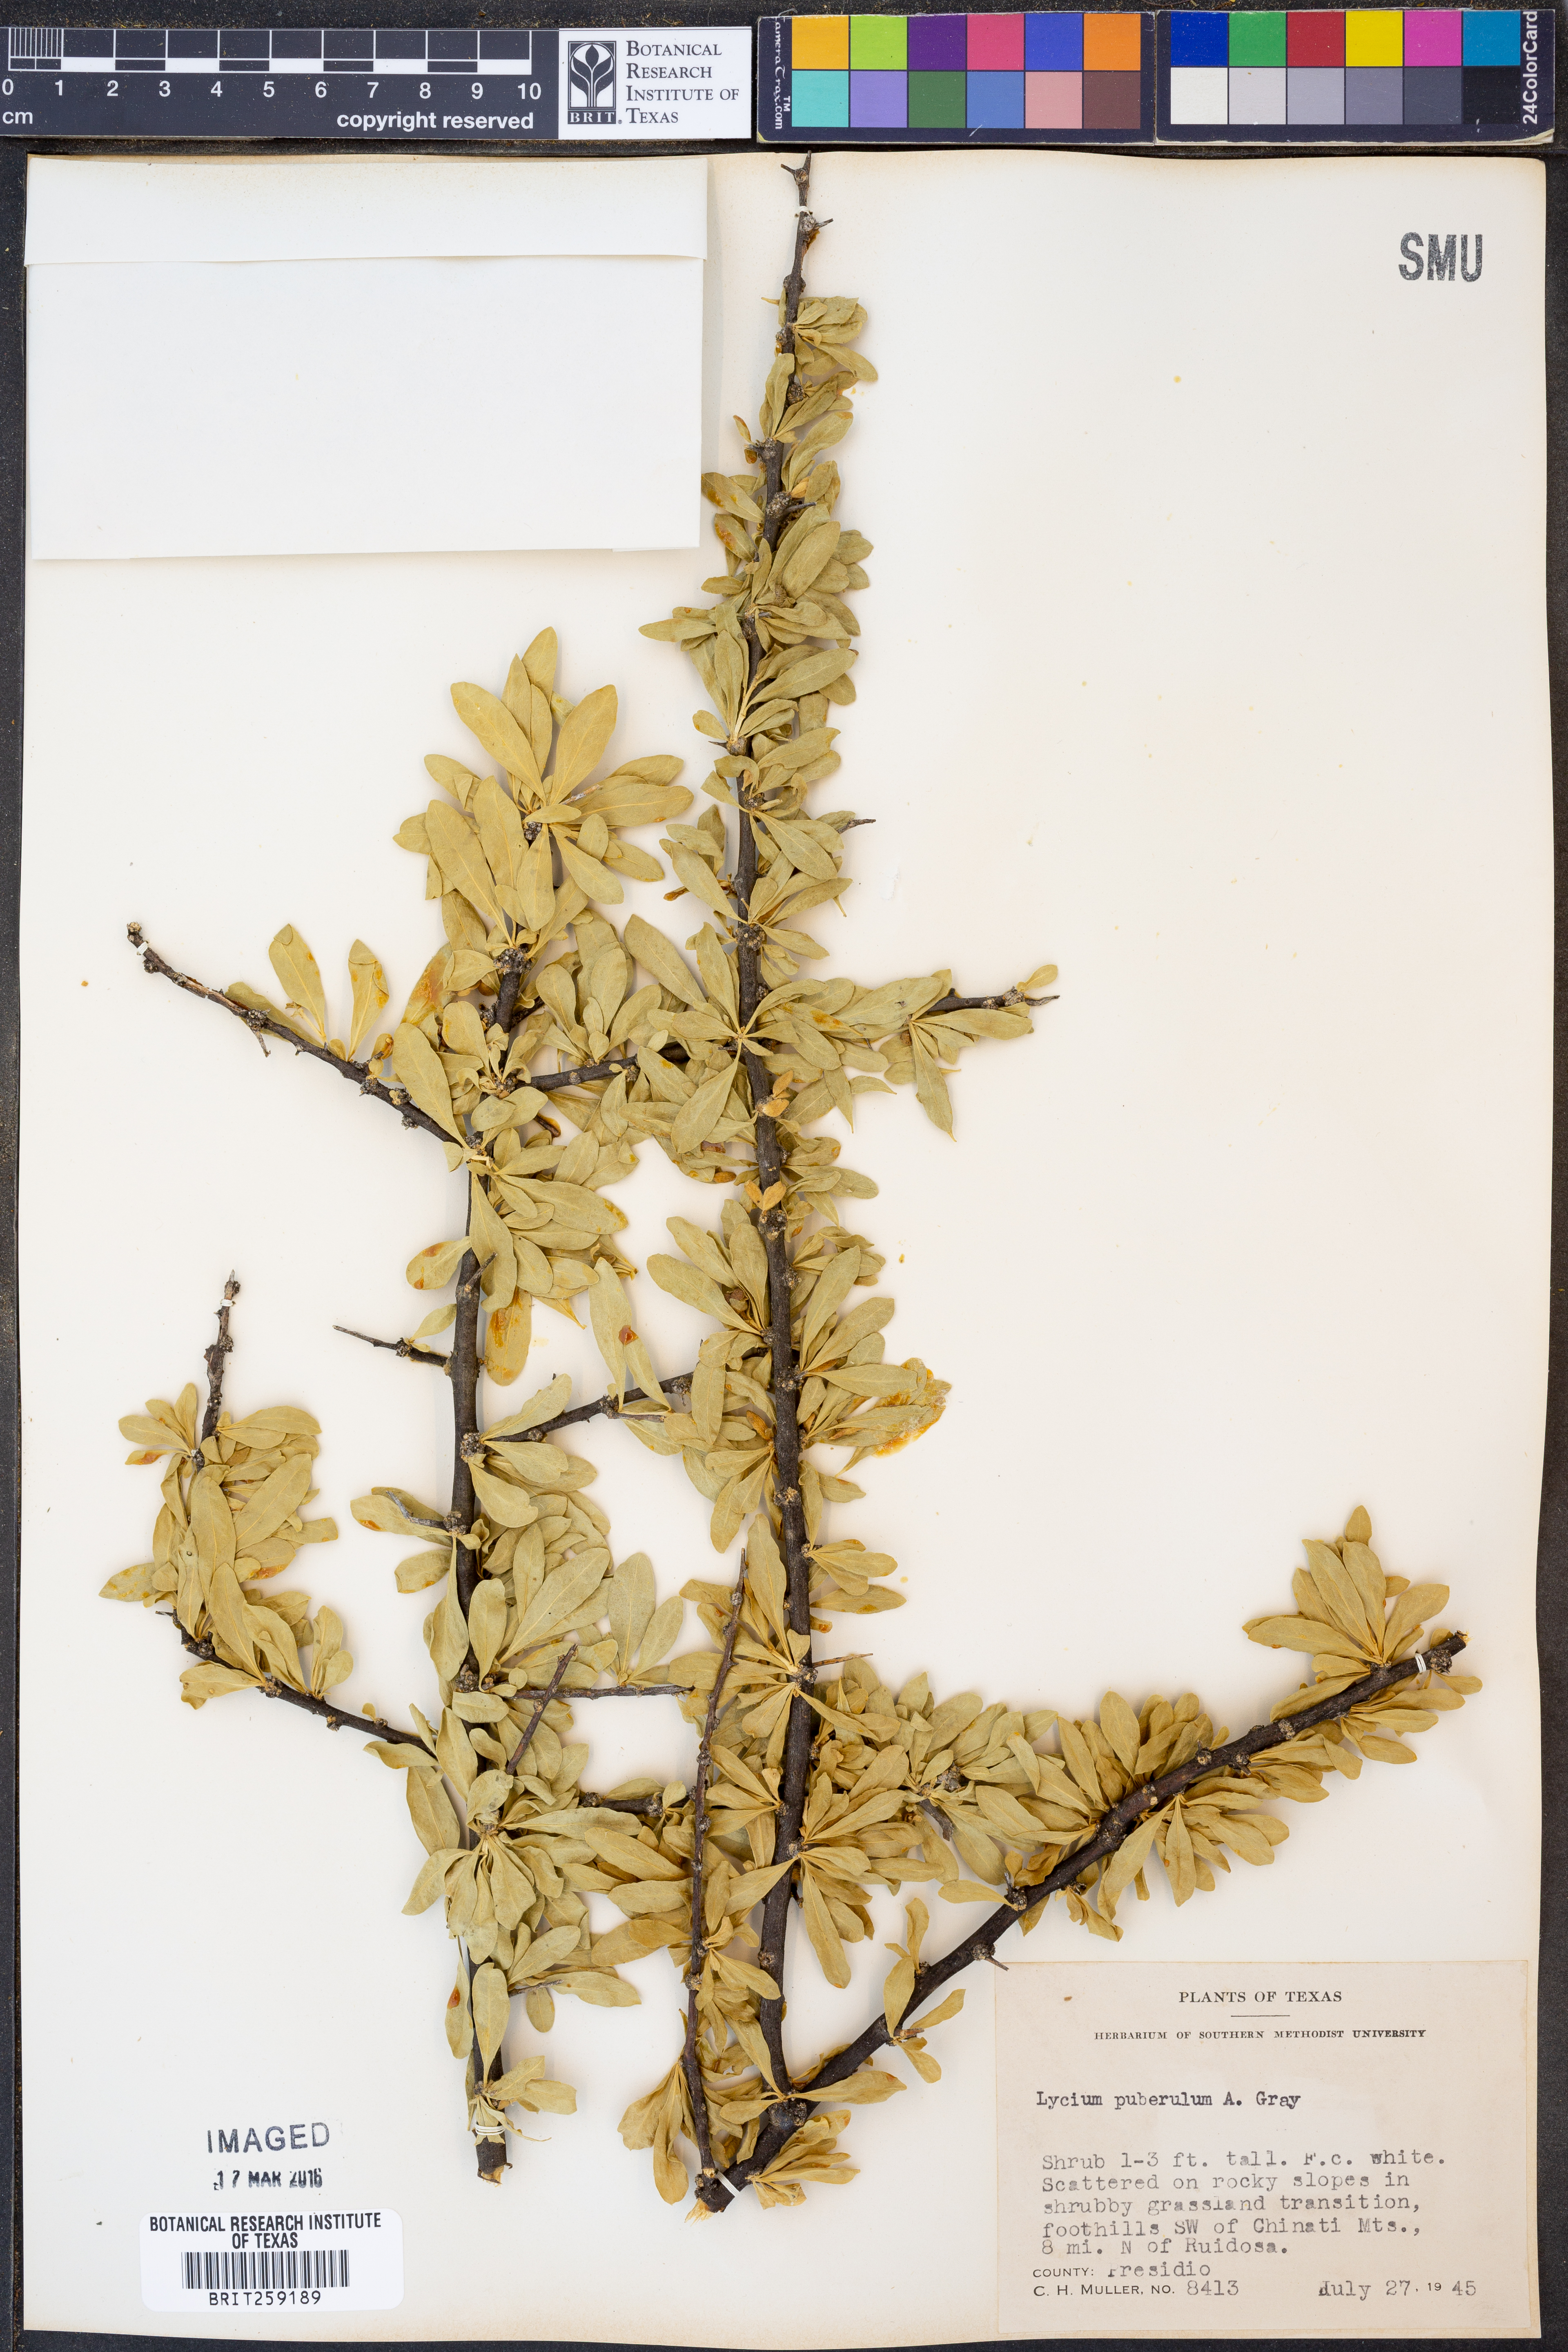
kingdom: Plantae
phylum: Tracheophyta
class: Magnoliopsida
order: Solanales
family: Solanaceae
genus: Lycium
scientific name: Lycium puberulum
